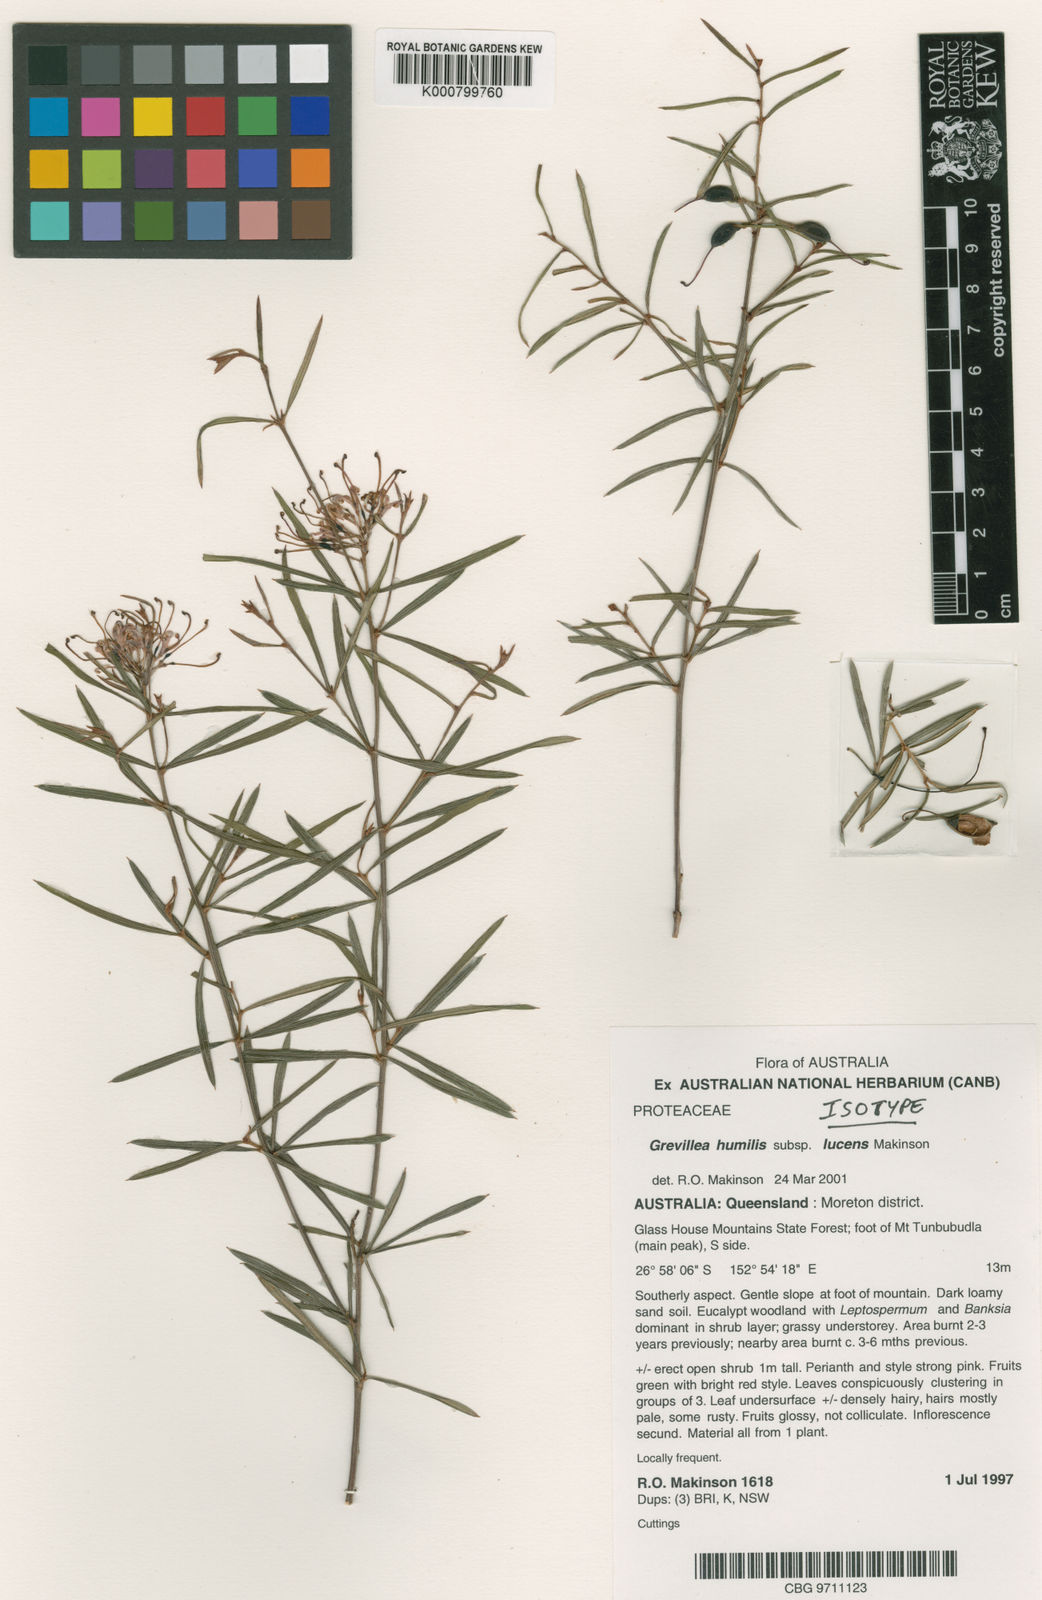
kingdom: Plantae
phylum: Tracheophyta
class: Magnoliopsida
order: Proteales
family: Proteaceae
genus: Grevillea
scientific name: Grevillea humilis
